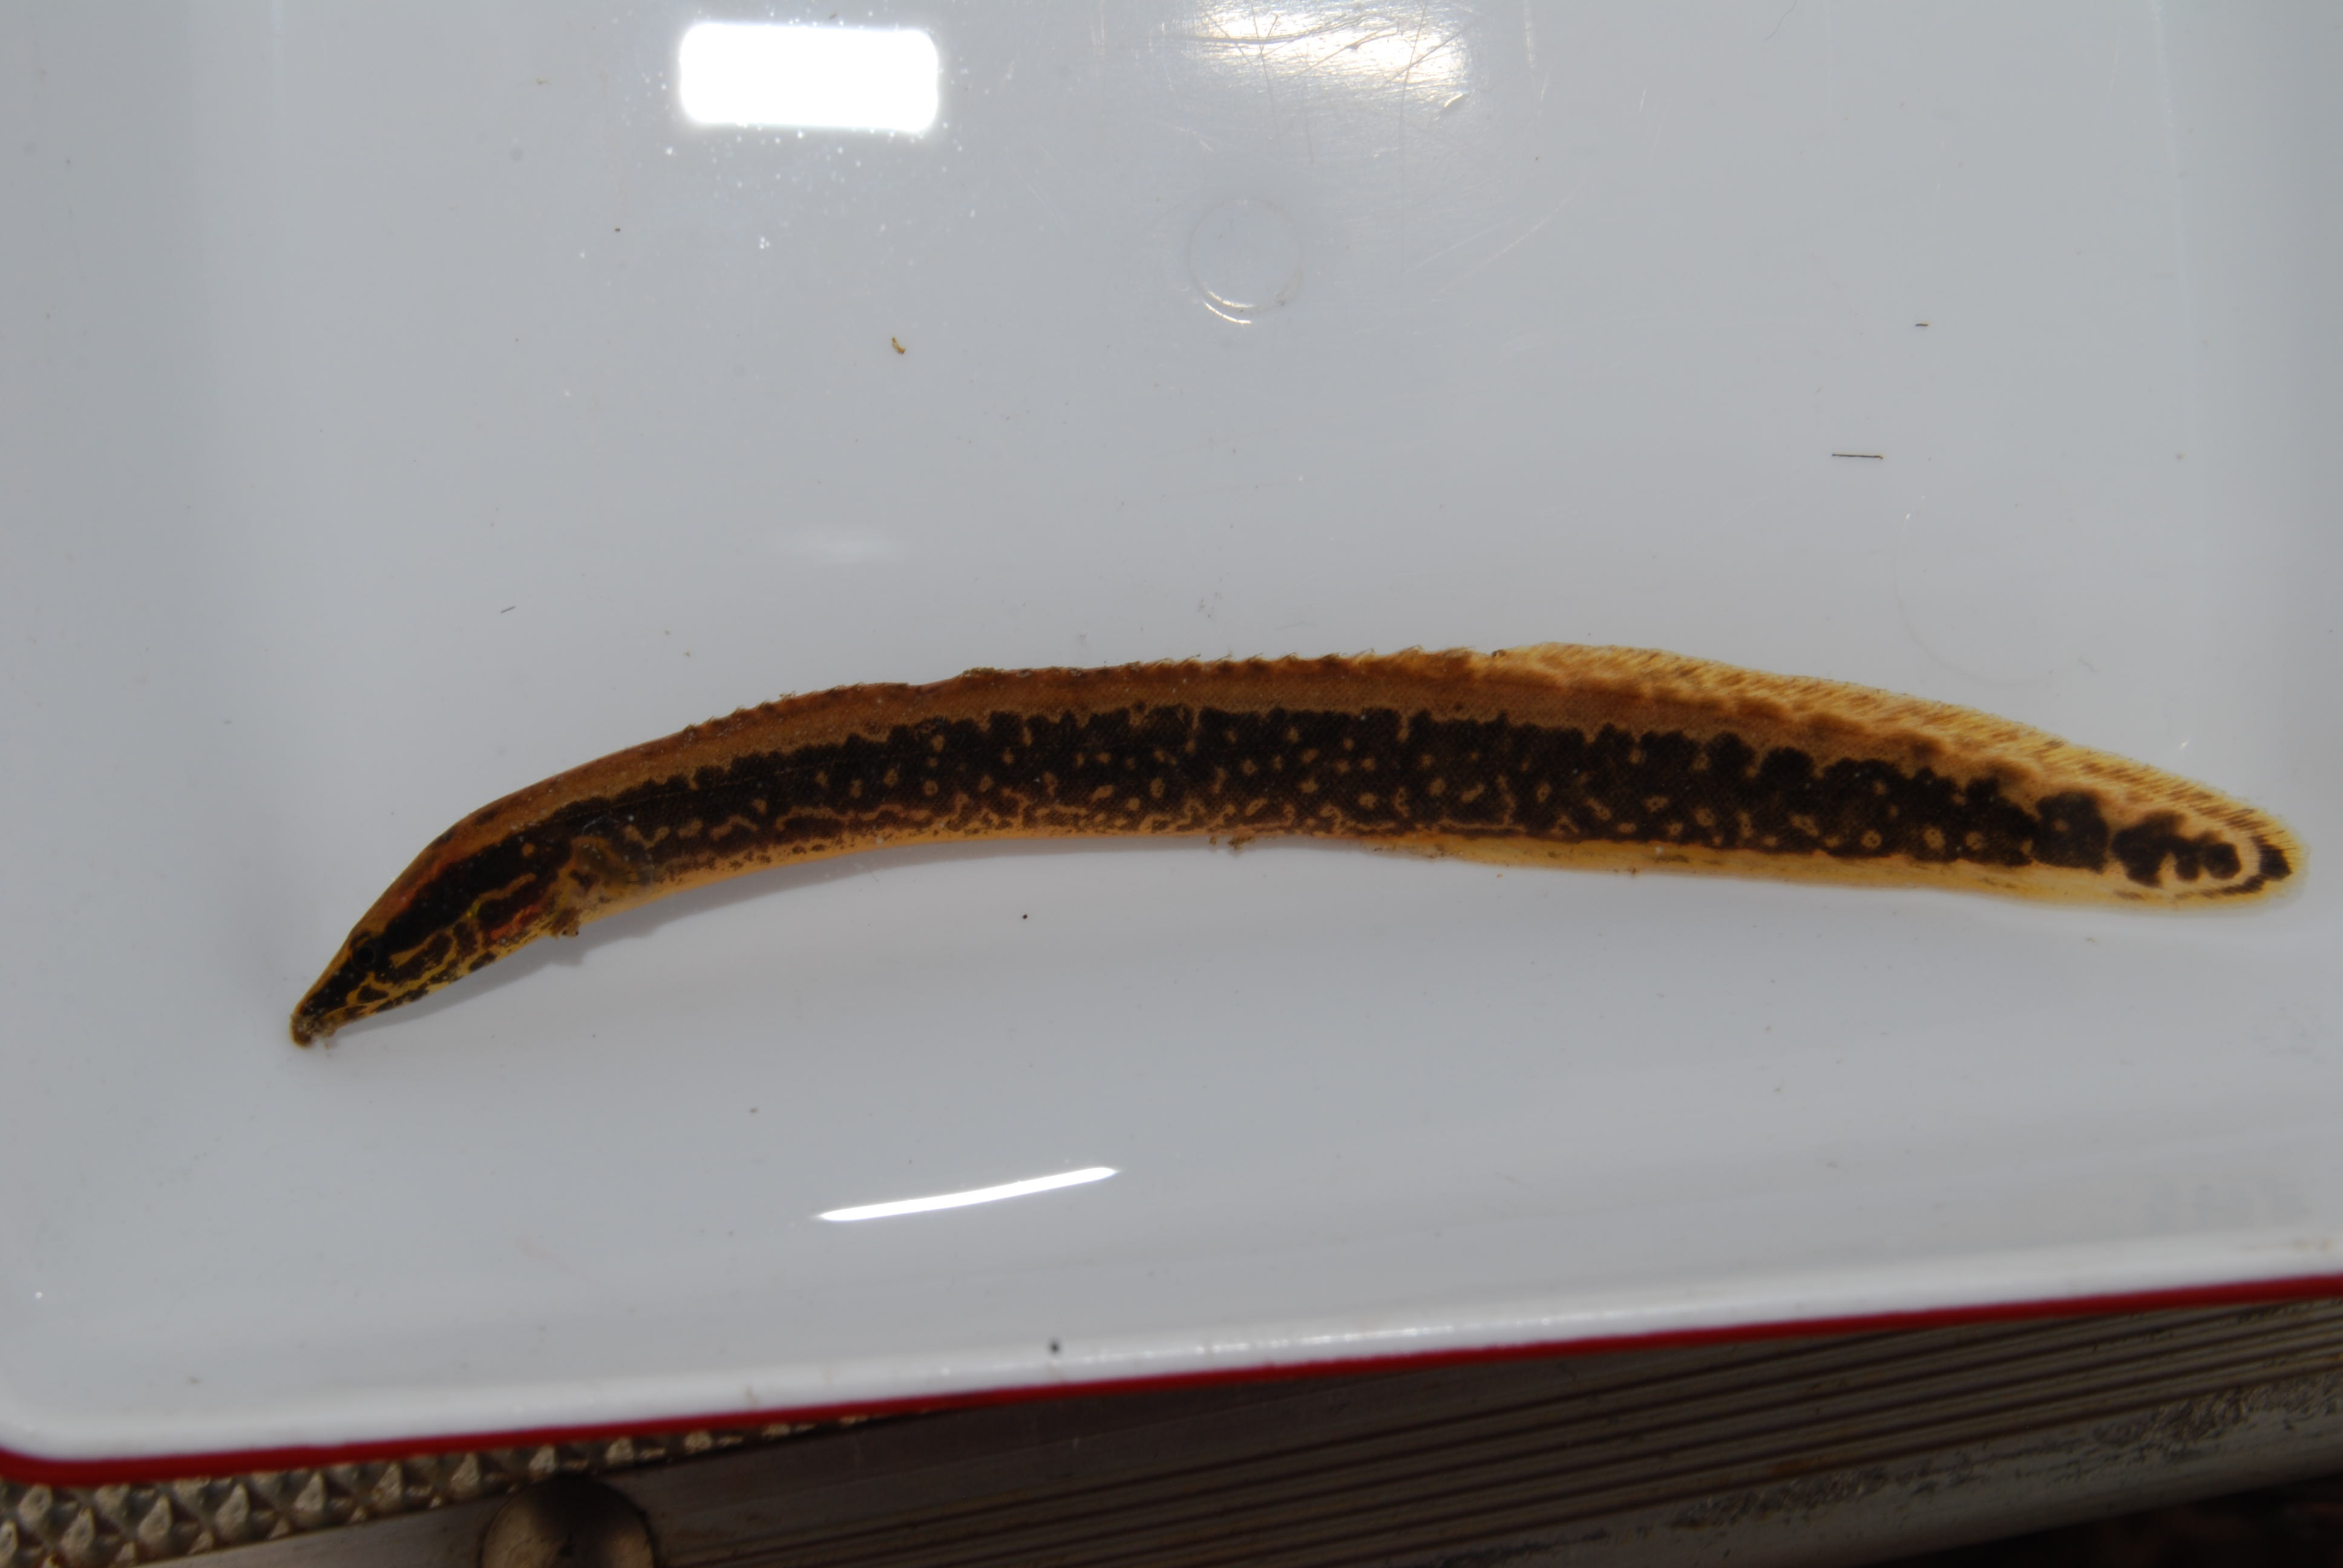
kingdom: Animalia
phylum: Chordata
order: Synbranchiformes
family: Mastacembelidae
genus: Mastacembelus
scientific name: Mastacembelus
